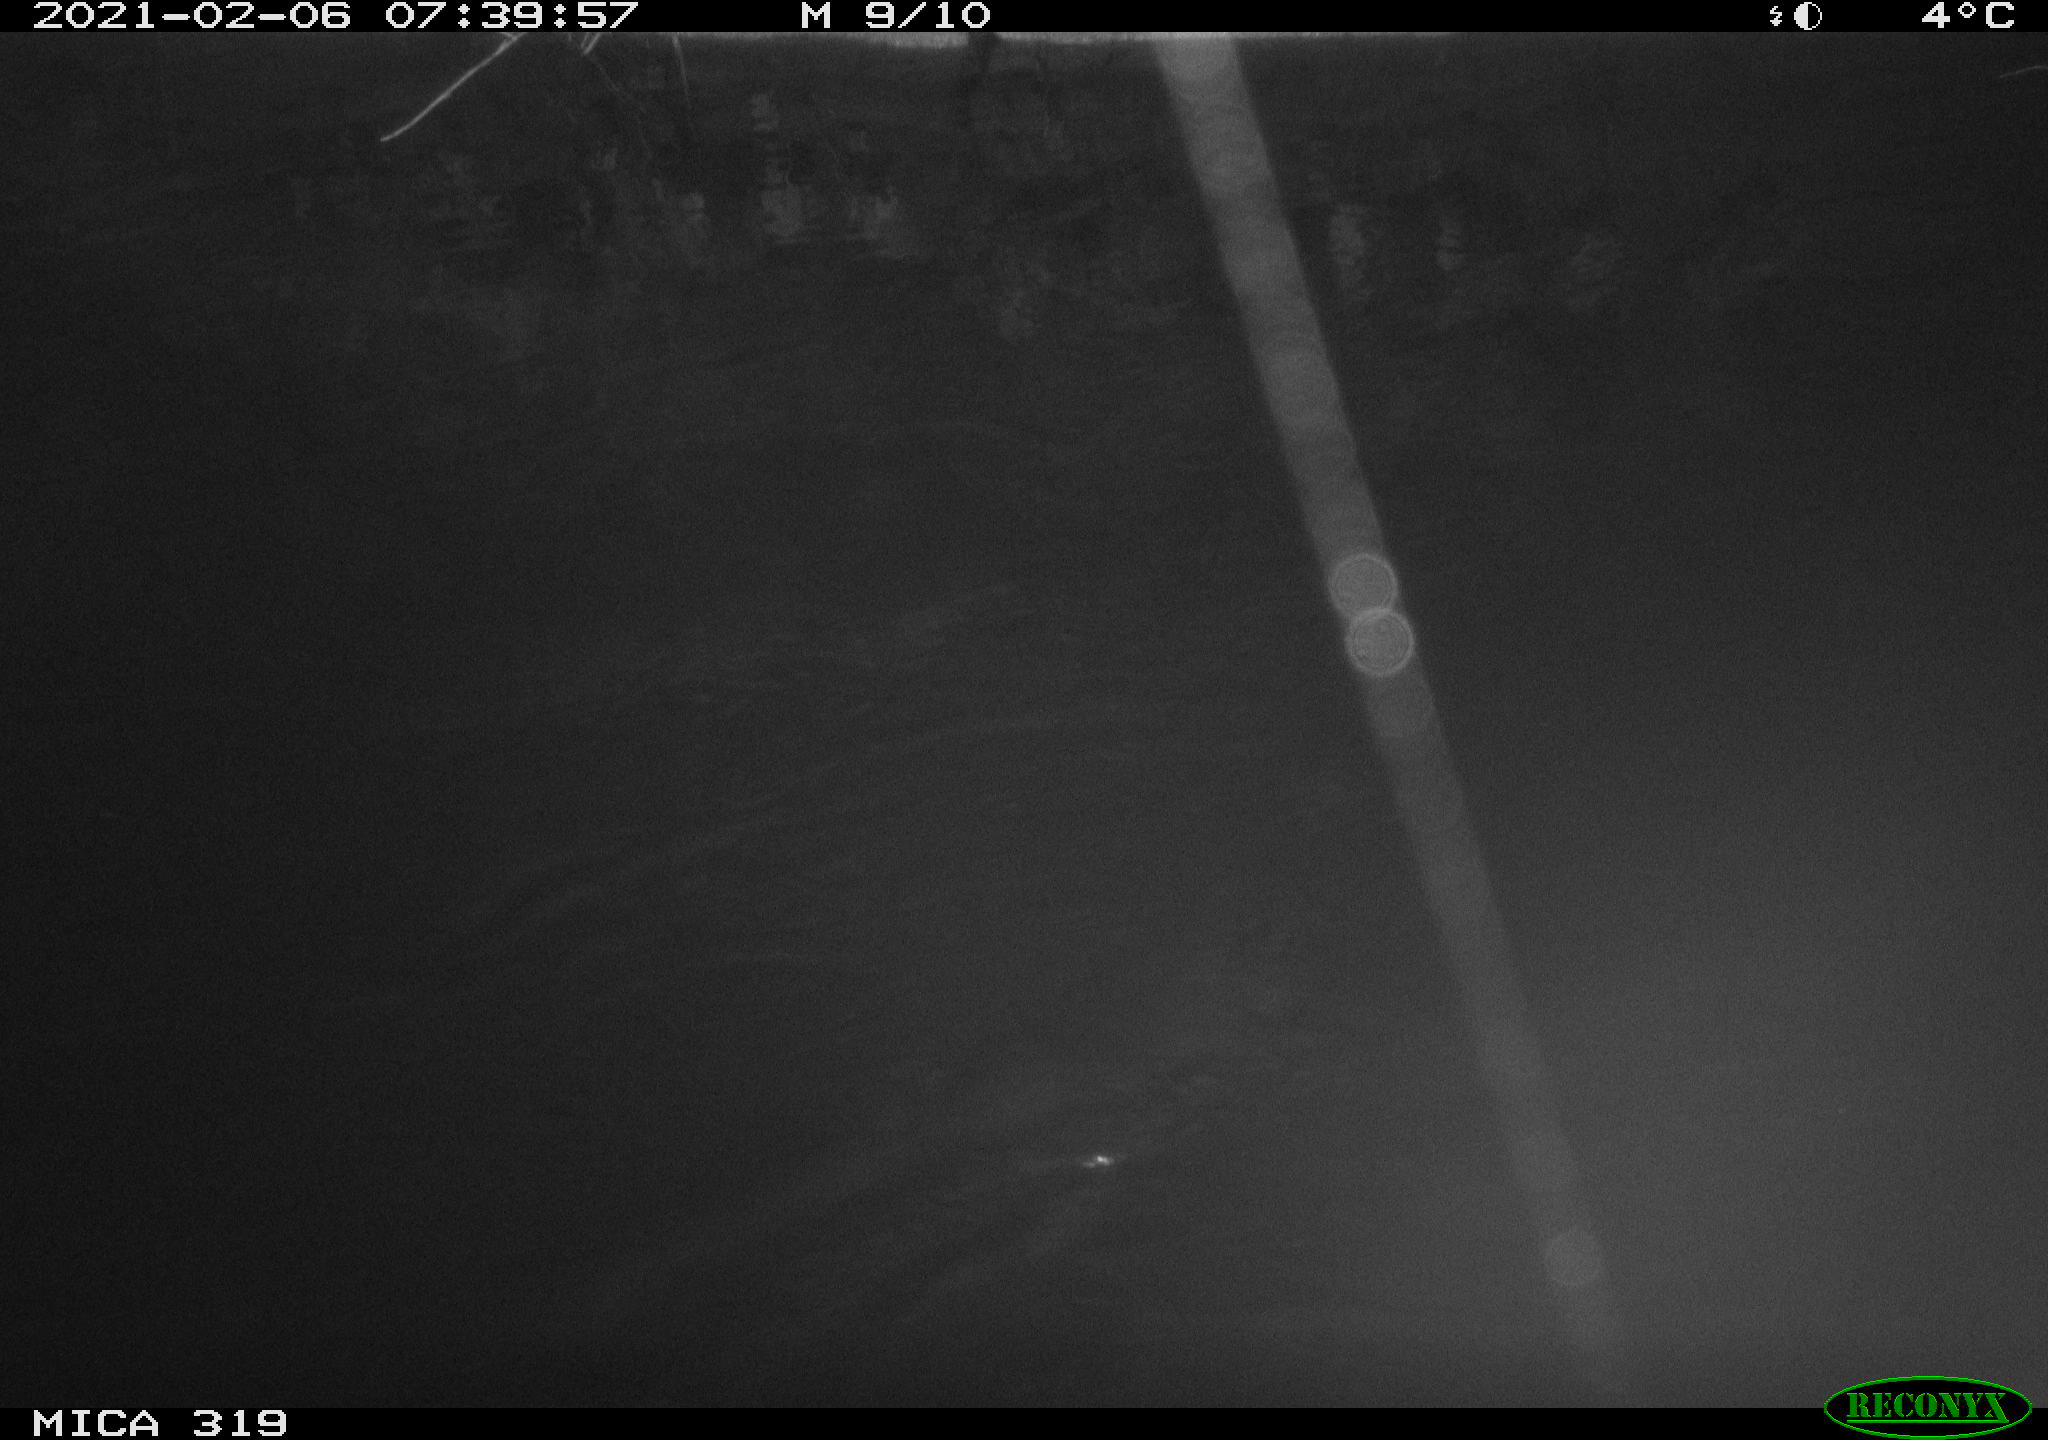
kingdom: Animalia
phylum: Chordata
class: Aves
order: Anseriformes
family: Anatidae
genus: Anas
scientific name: Anas platyrhynchos
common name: Mallard
